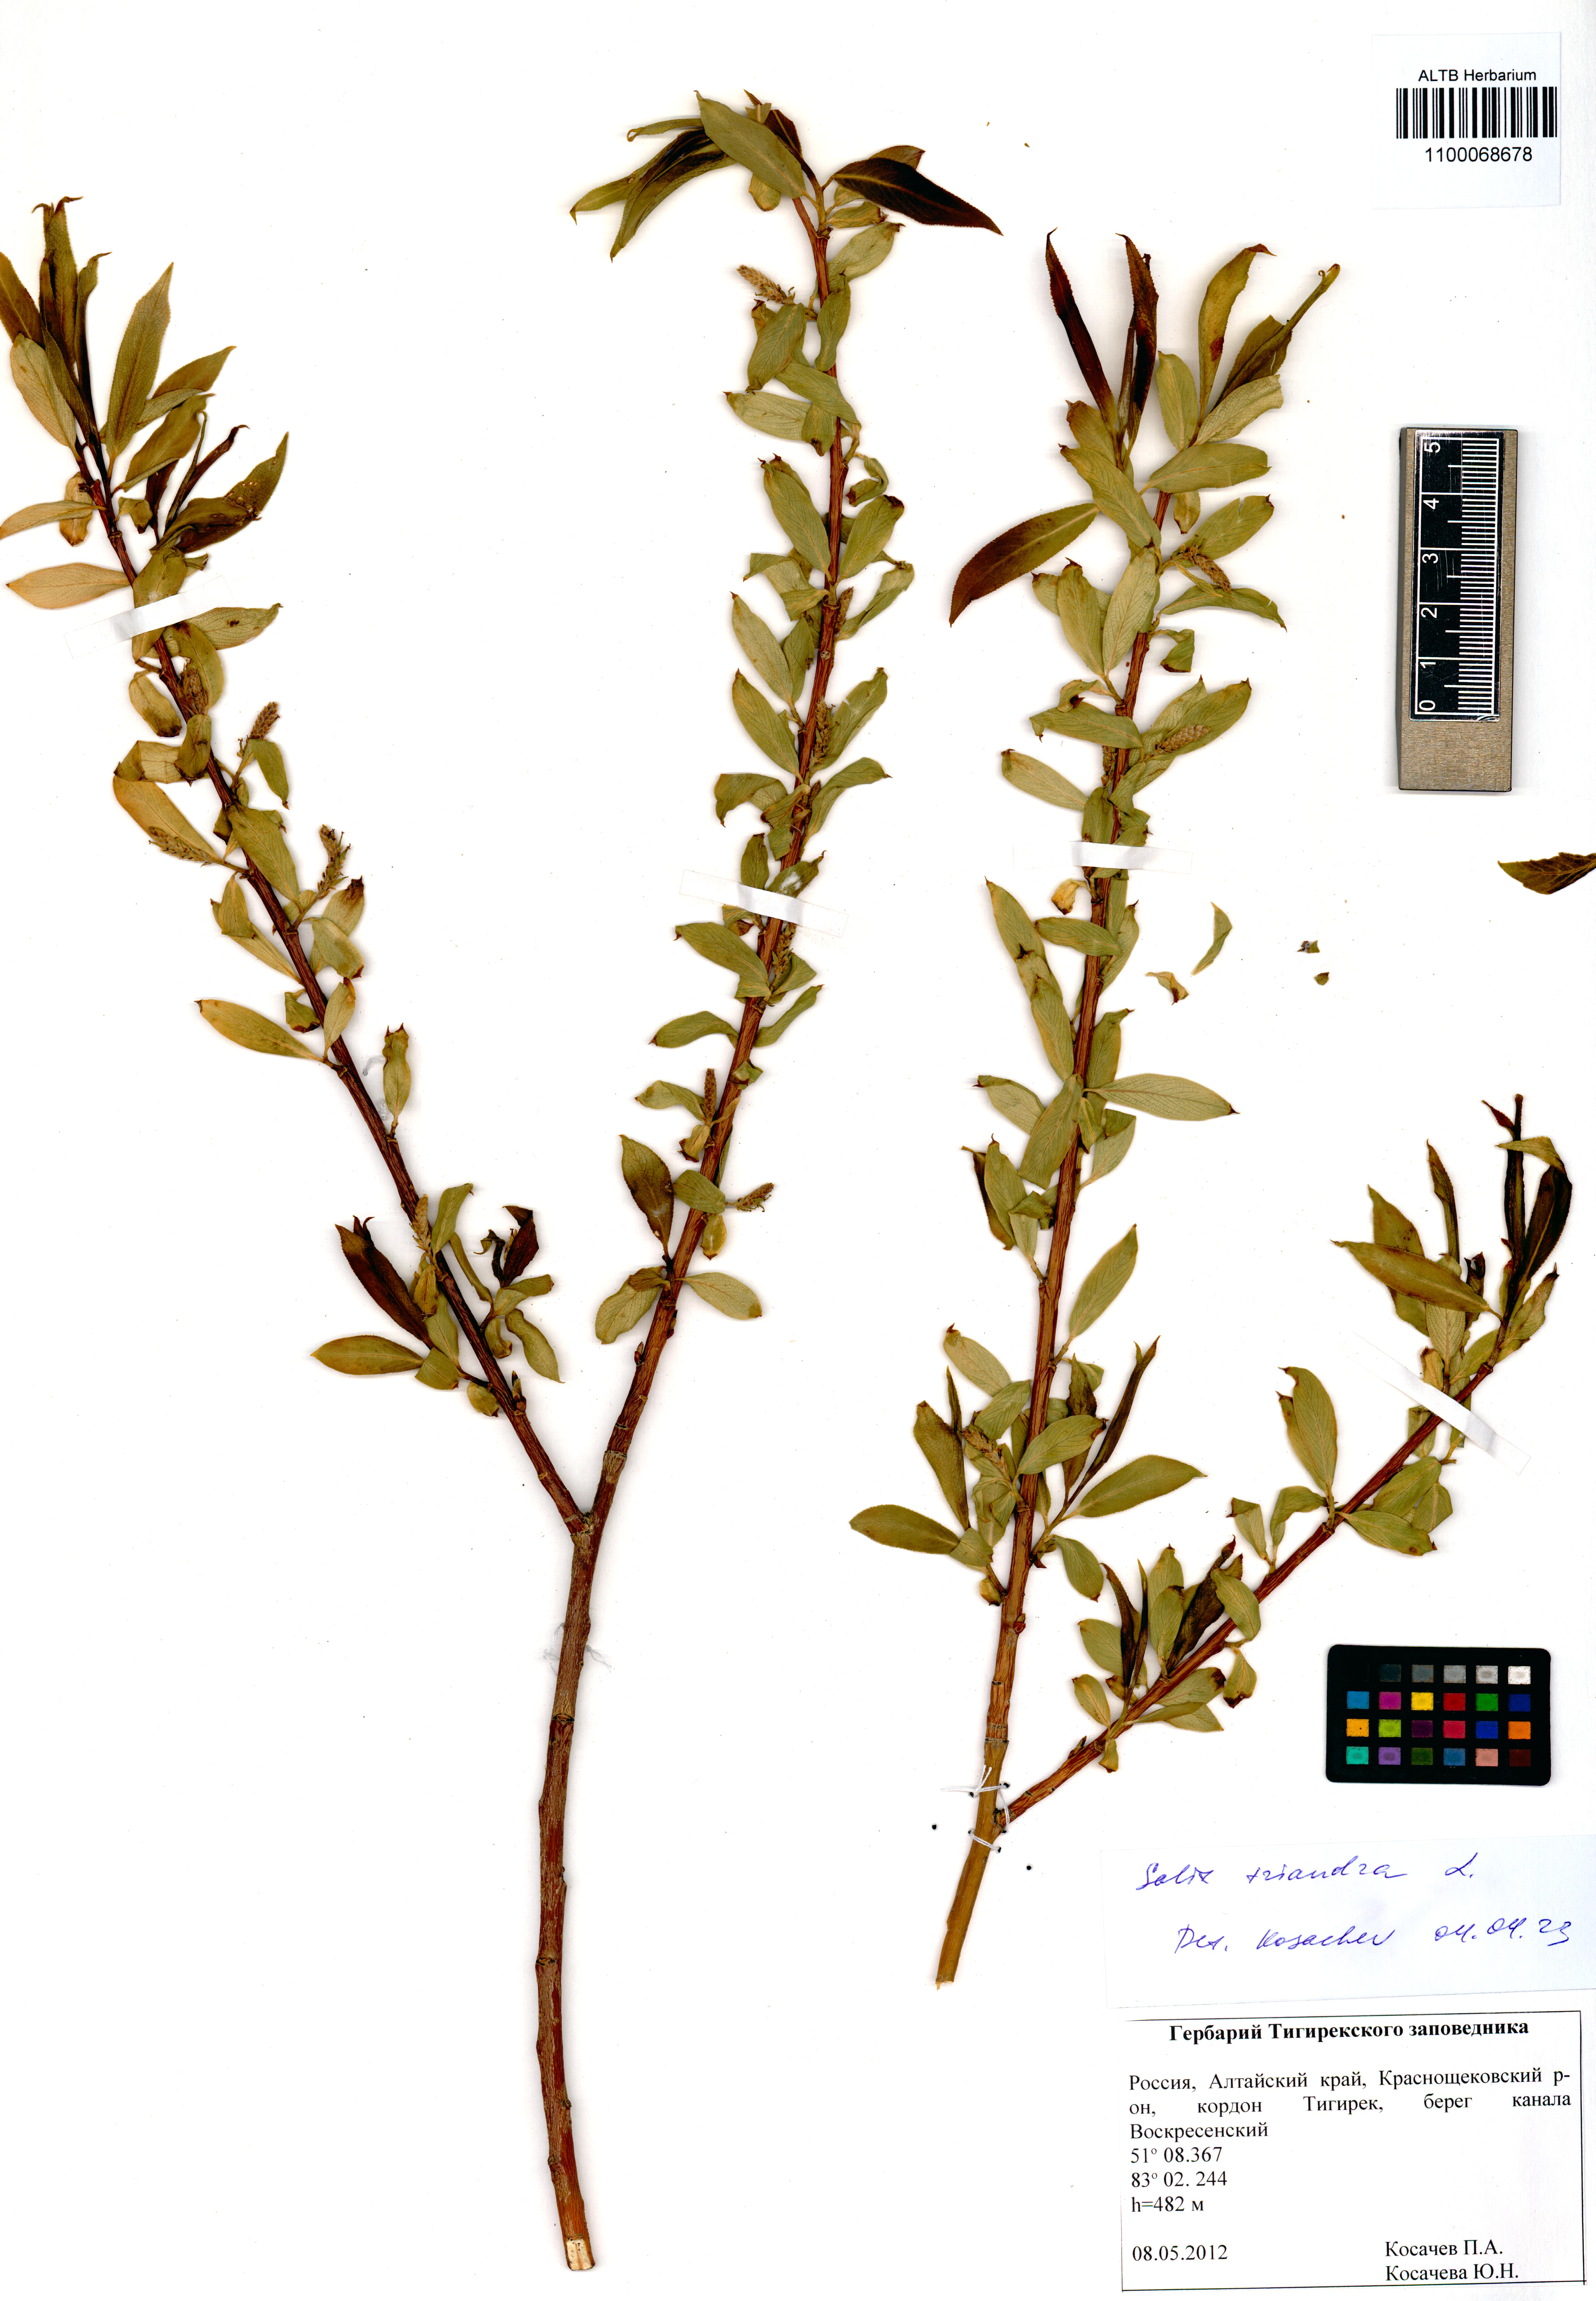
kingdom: Plantae
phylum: Tracheophyta
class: Magnoliopsida
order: Malpighiales
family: Salicaceae
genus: Salix
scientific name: Salix triandra
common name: Almond willow
